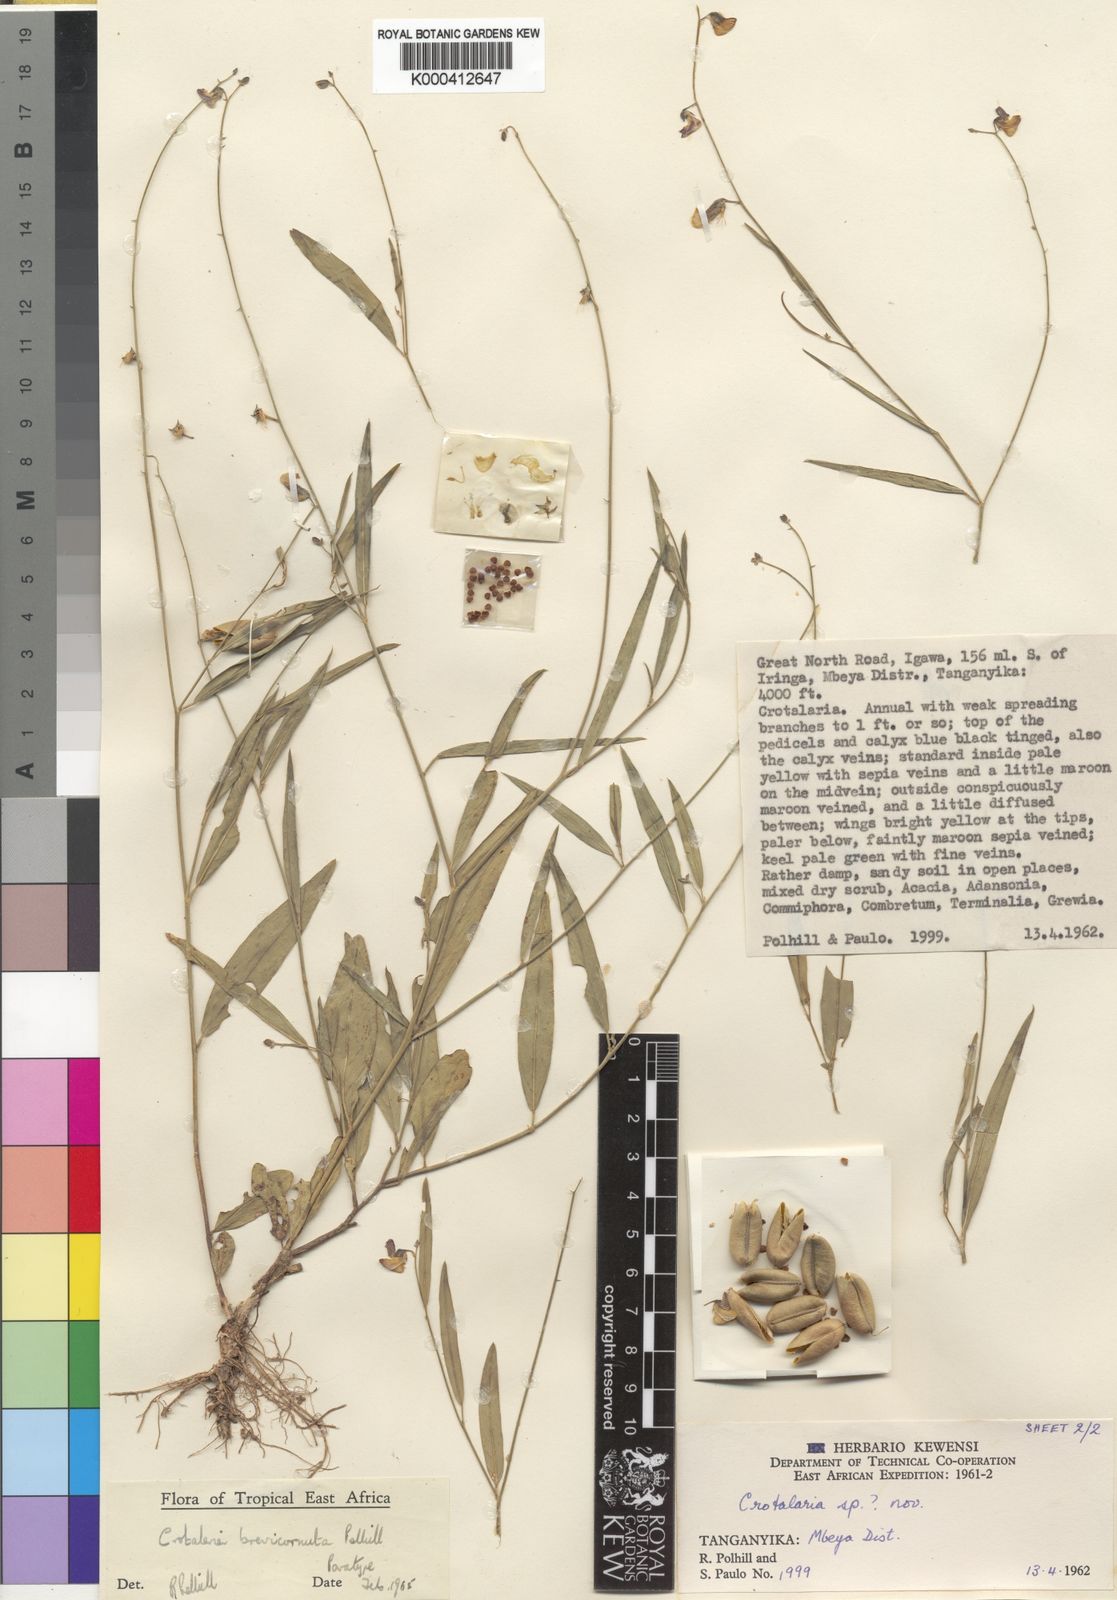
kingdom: Plantae
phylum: Tracheophyta
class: Magnoliopsida
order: Fabales
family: Fabaceae
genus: Crotalaria
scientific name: Crotalaria brevicornuta
